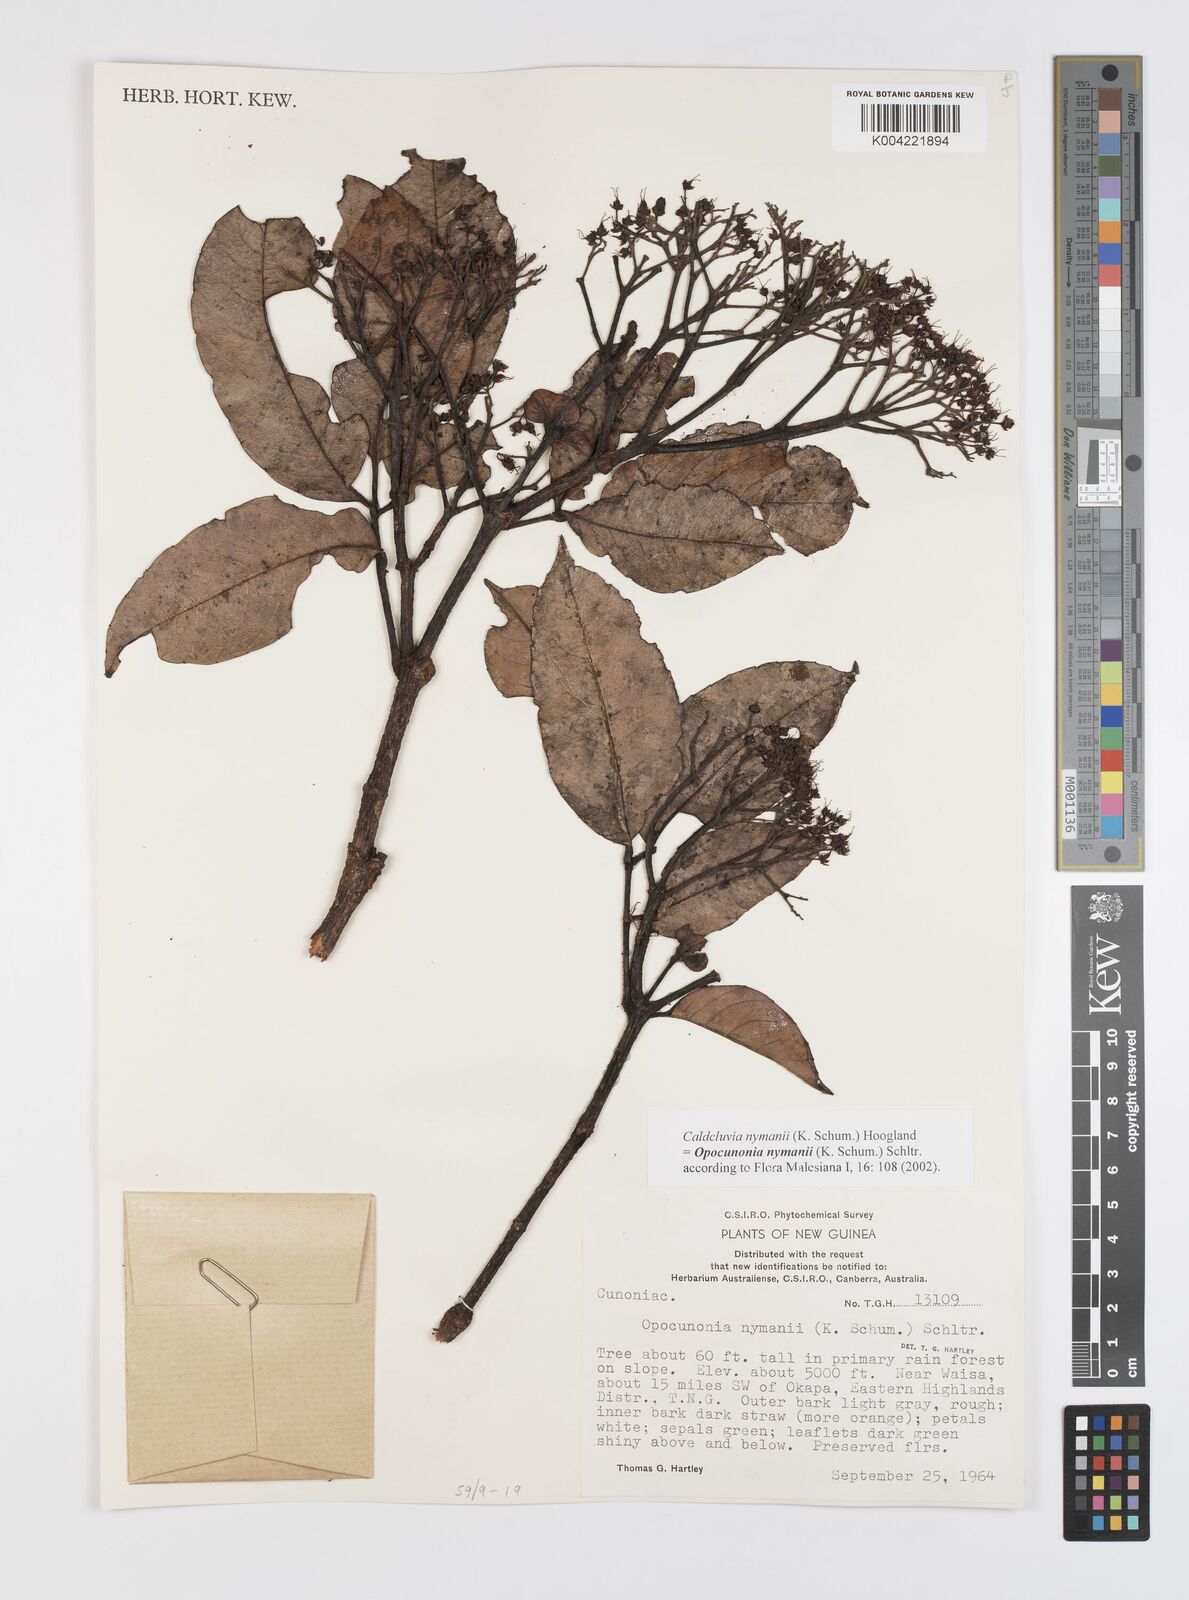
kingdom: Plantae
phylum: Tracheophyta
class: Magnoliopsida
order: Oxalidales
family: Cunoniaceae
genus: Opocunonia
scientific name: Opocunonia nymanii
